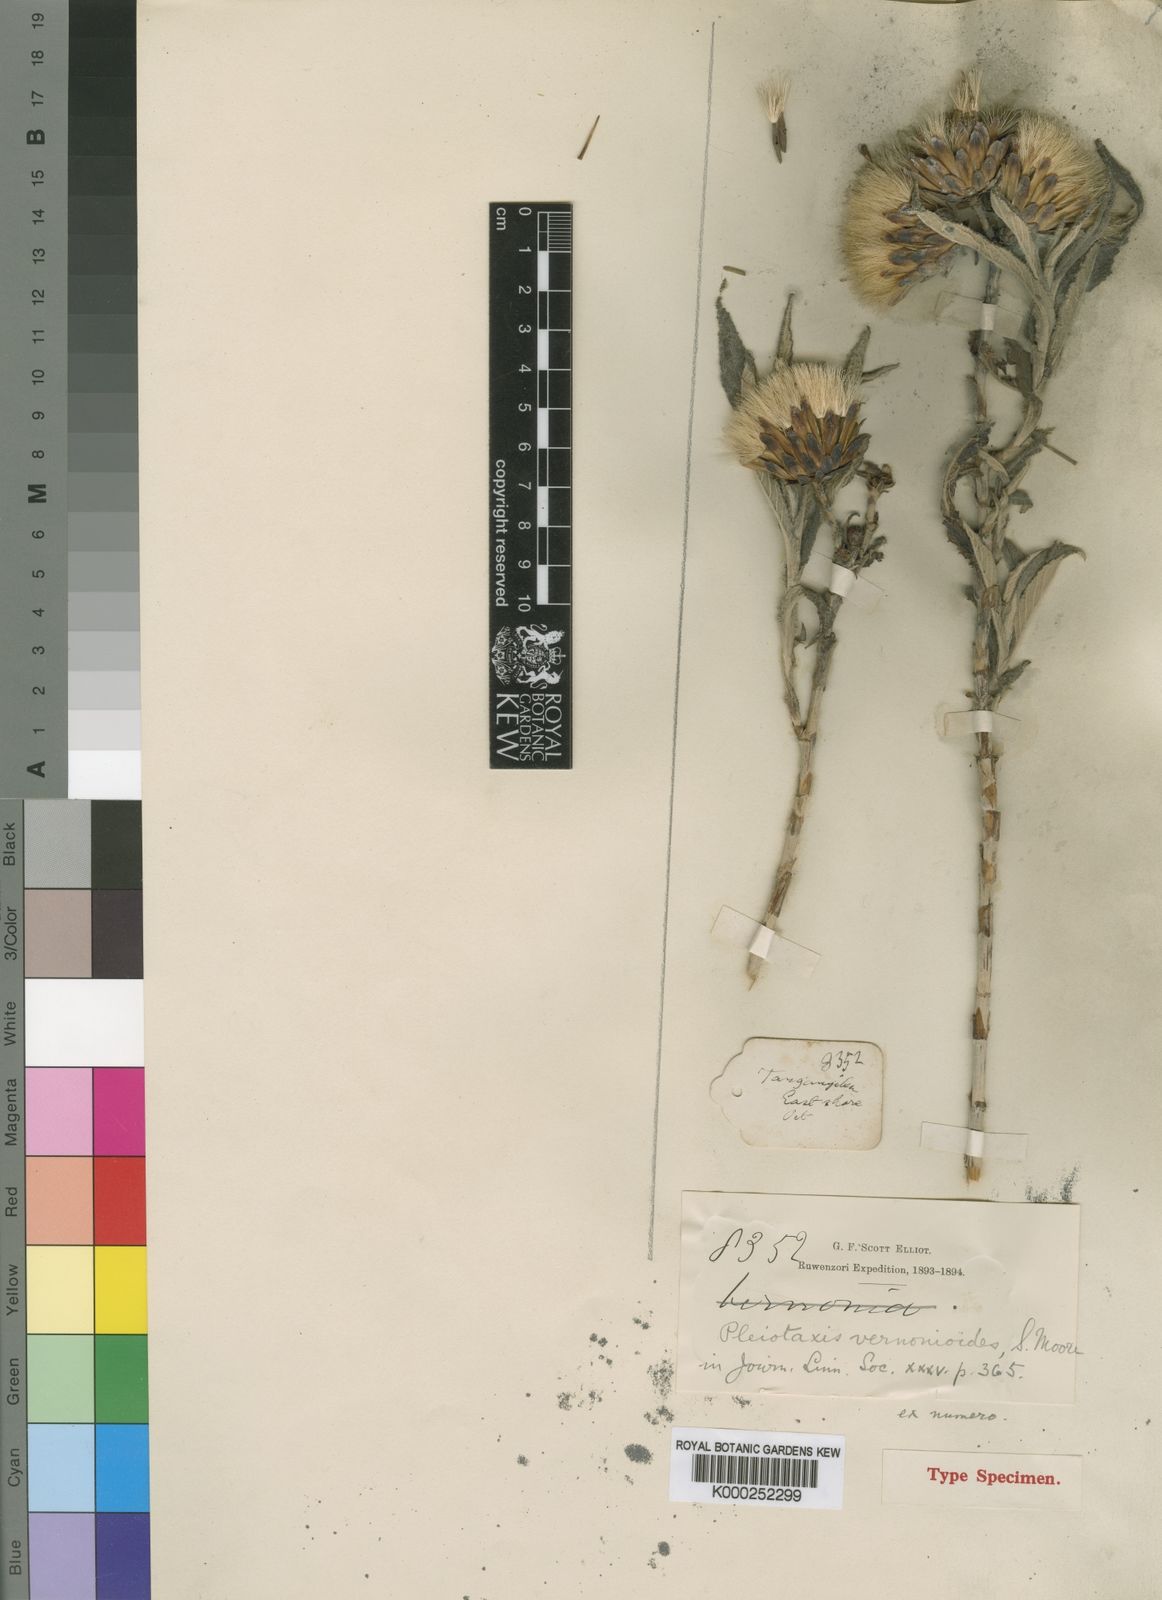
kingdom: Plantae
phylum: Tracheophyta
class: Magnoliopsida
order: Asterales
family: Asteraceae
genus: Pleiotaxis
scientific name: Pleiotaxis dewevrei
